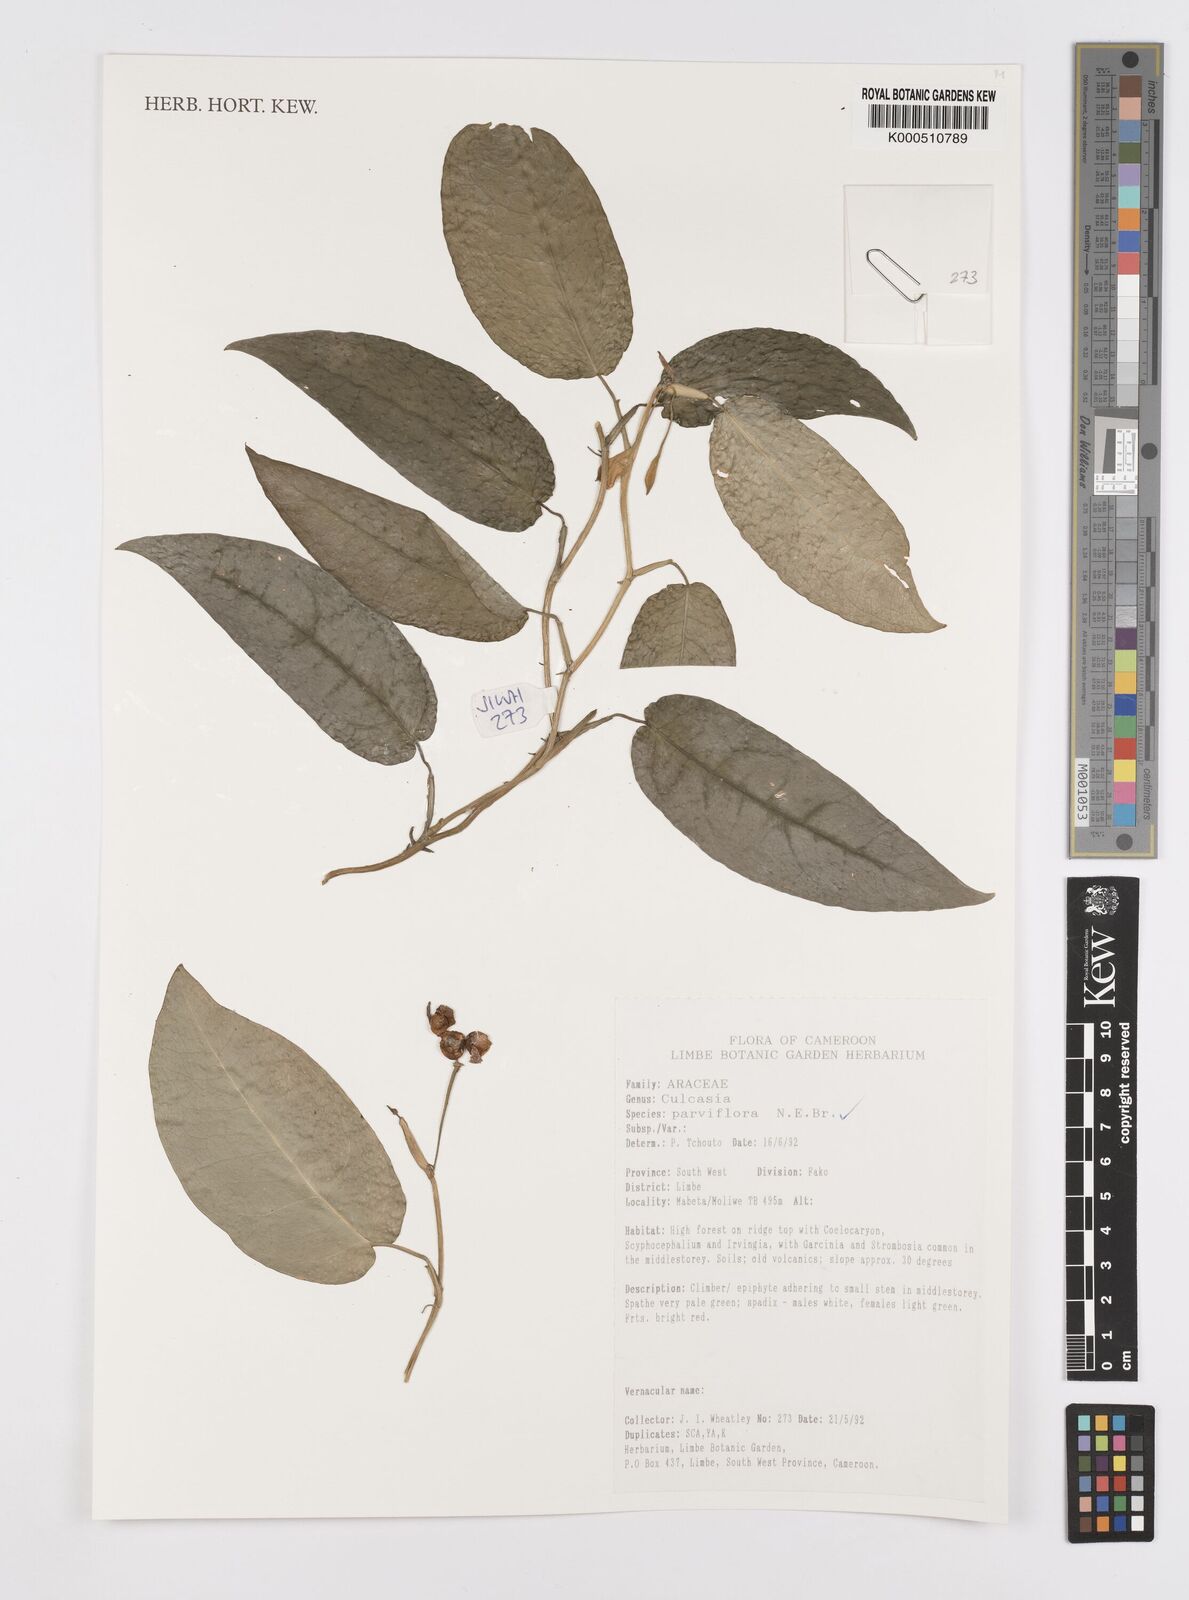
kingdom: Plantae
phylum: Tracheophyta
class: Liliopsida
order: Alismatales
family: Araceae
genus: Culcasia
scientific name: Culcasia parviflora
